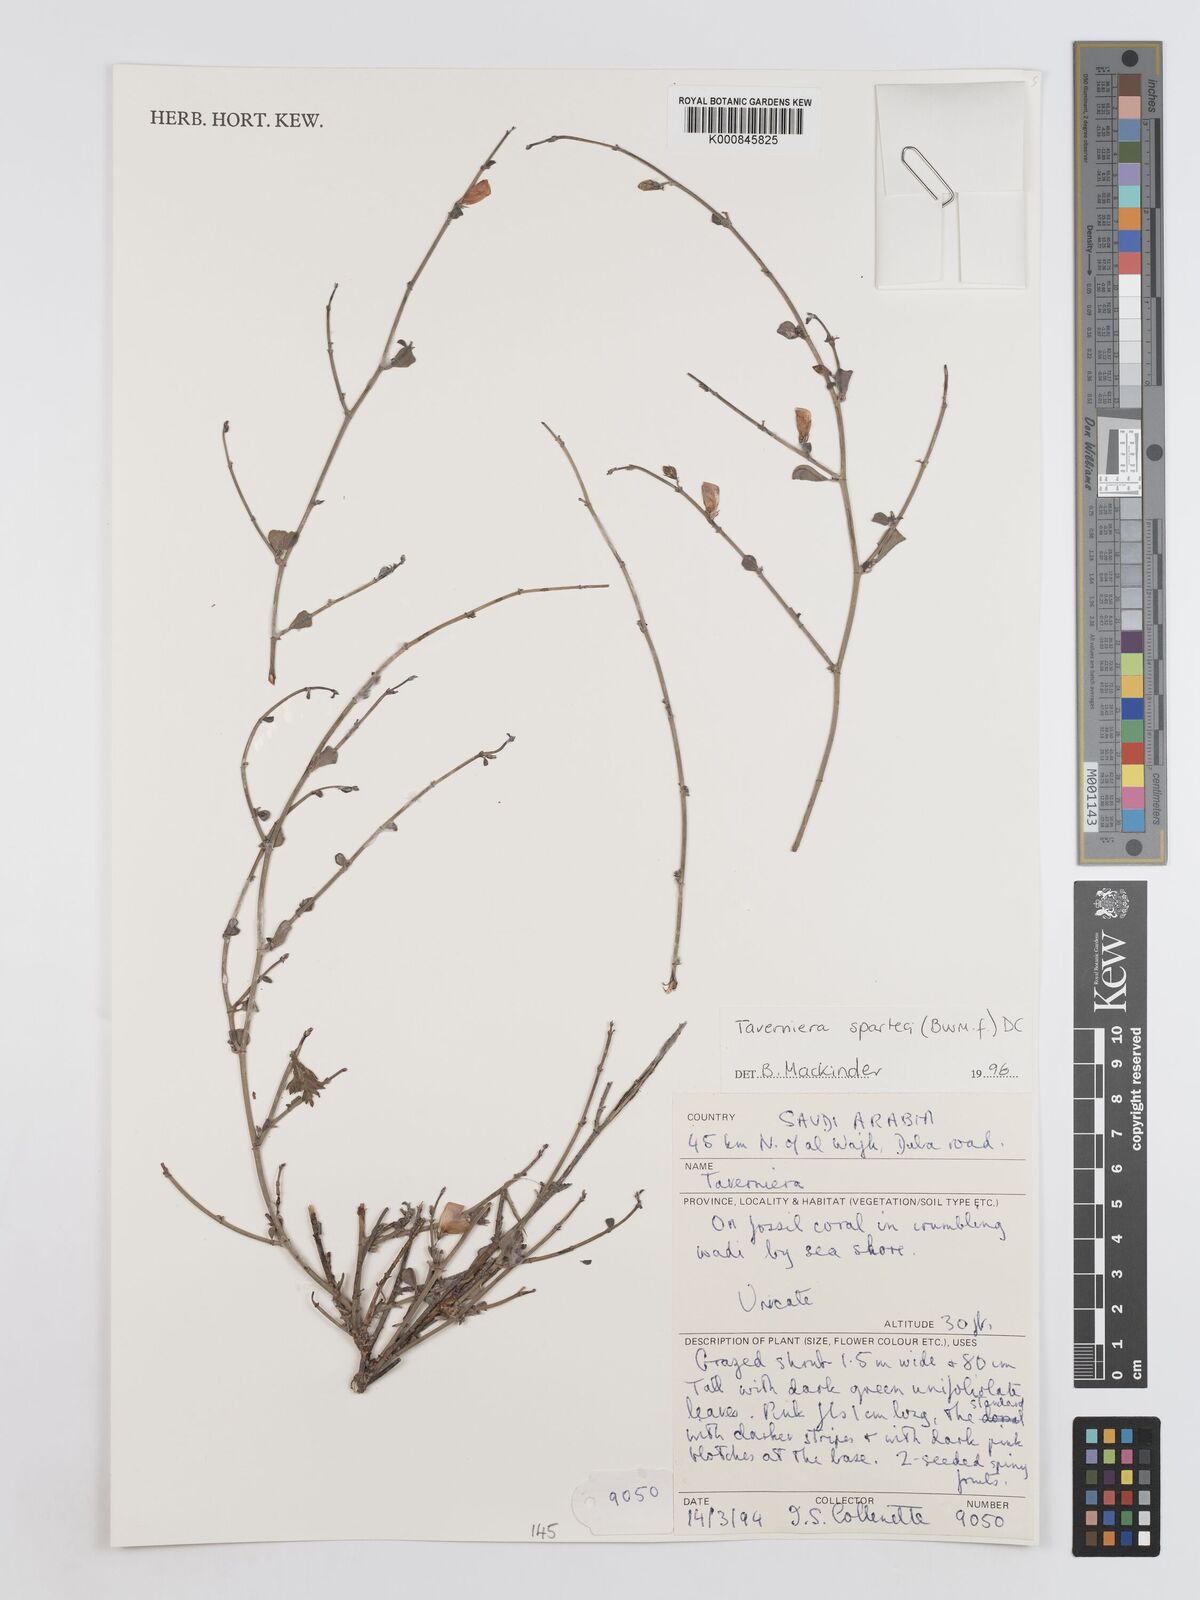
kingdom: Plantae
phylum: Tracheophyta
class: Magnoliopsida
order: Fabales
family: Fabaceae
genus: Taverniera
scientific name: Taverniera spartea
